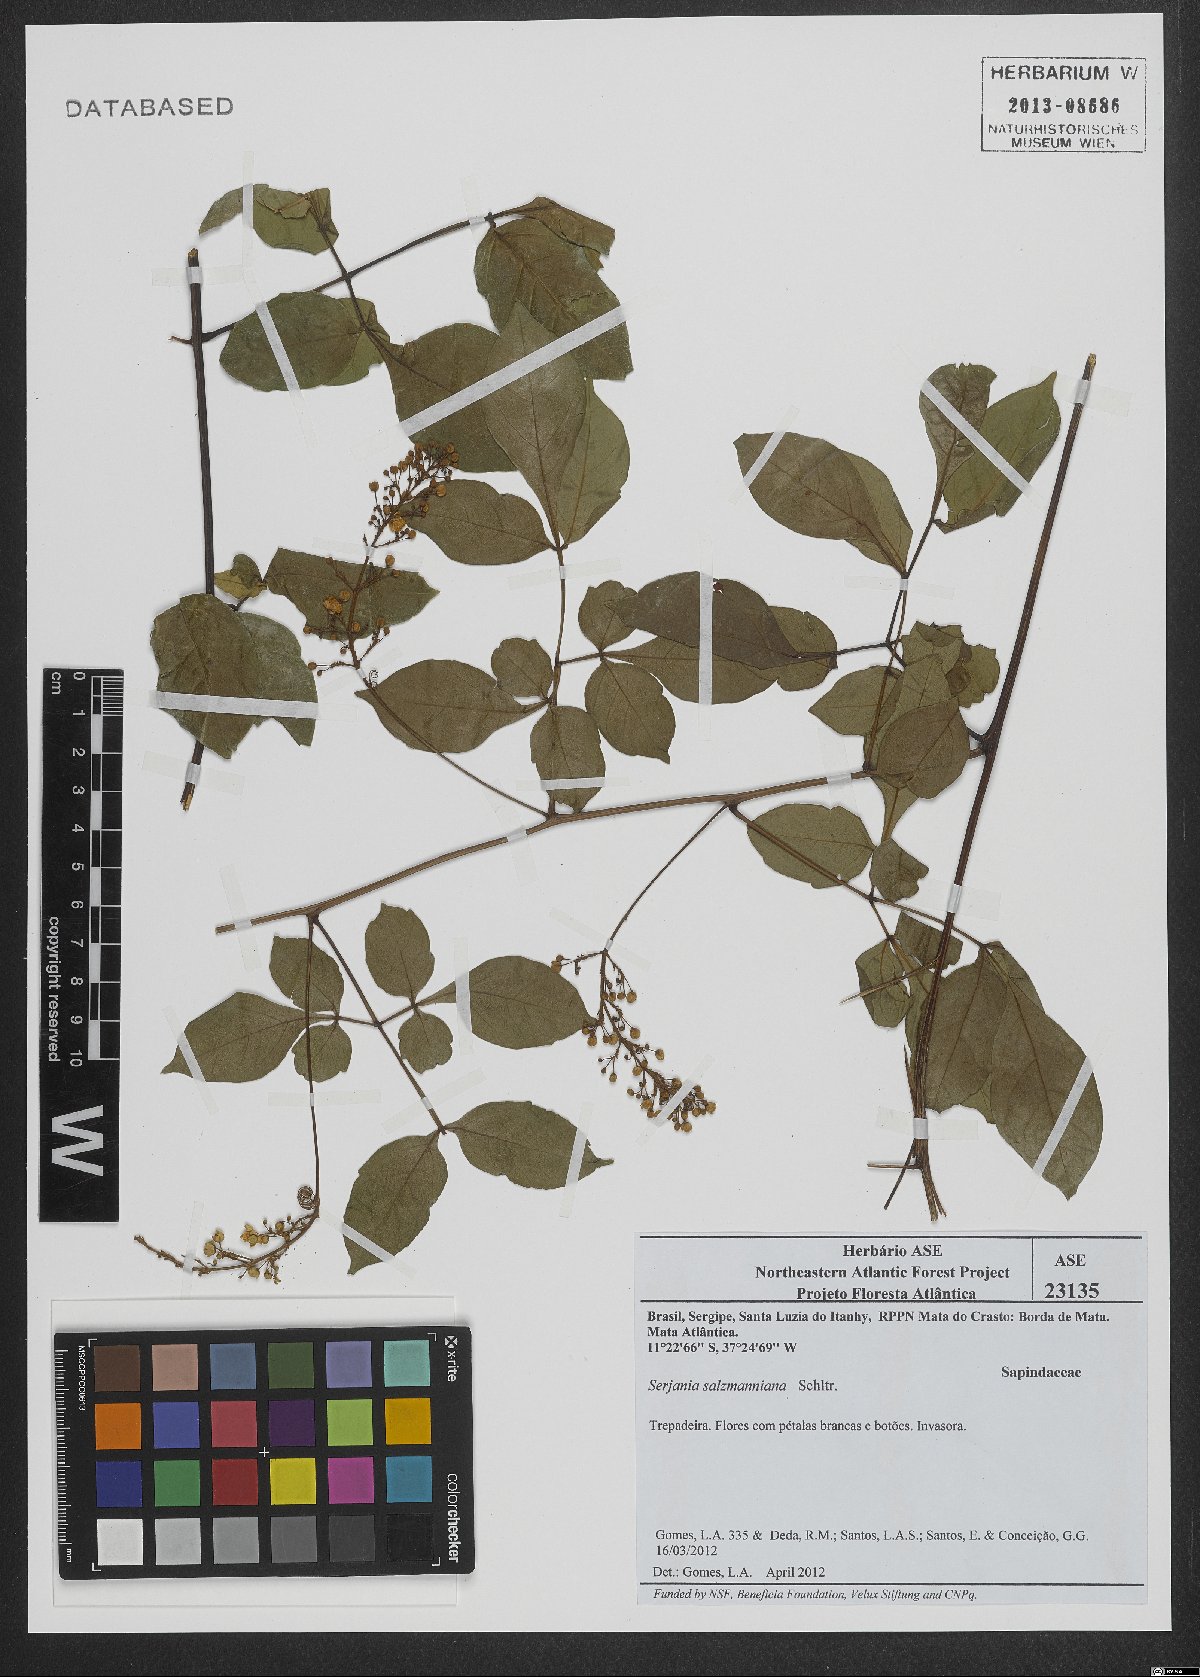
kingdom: Plantae
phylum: Tracheophyta
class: Magnoliopsida
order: Sapindales
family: Sapindaceae
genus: Serjania
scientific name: Serjania salzmanniana
